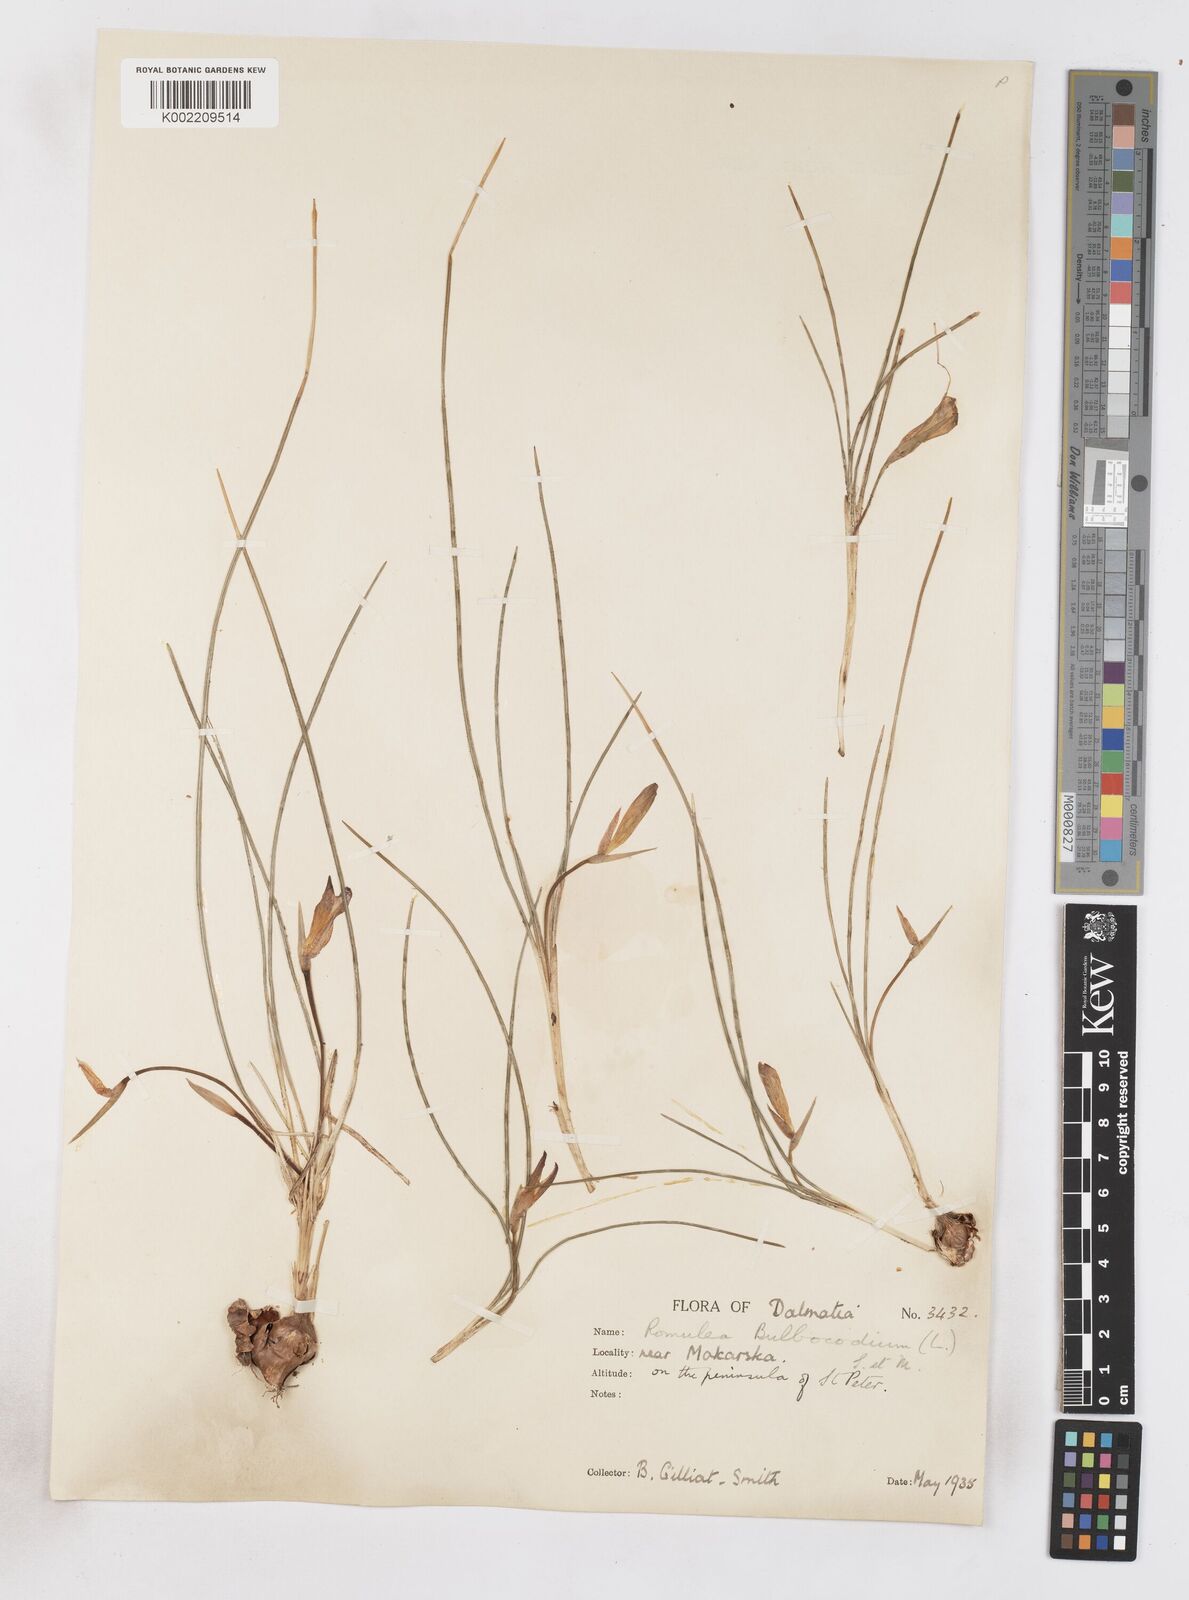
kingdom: Plantae
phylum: Tracheophyta
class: Liliopsida
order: Asparagales
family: Iridaceae
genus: Romulea
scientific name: Romulea bulbocodium
